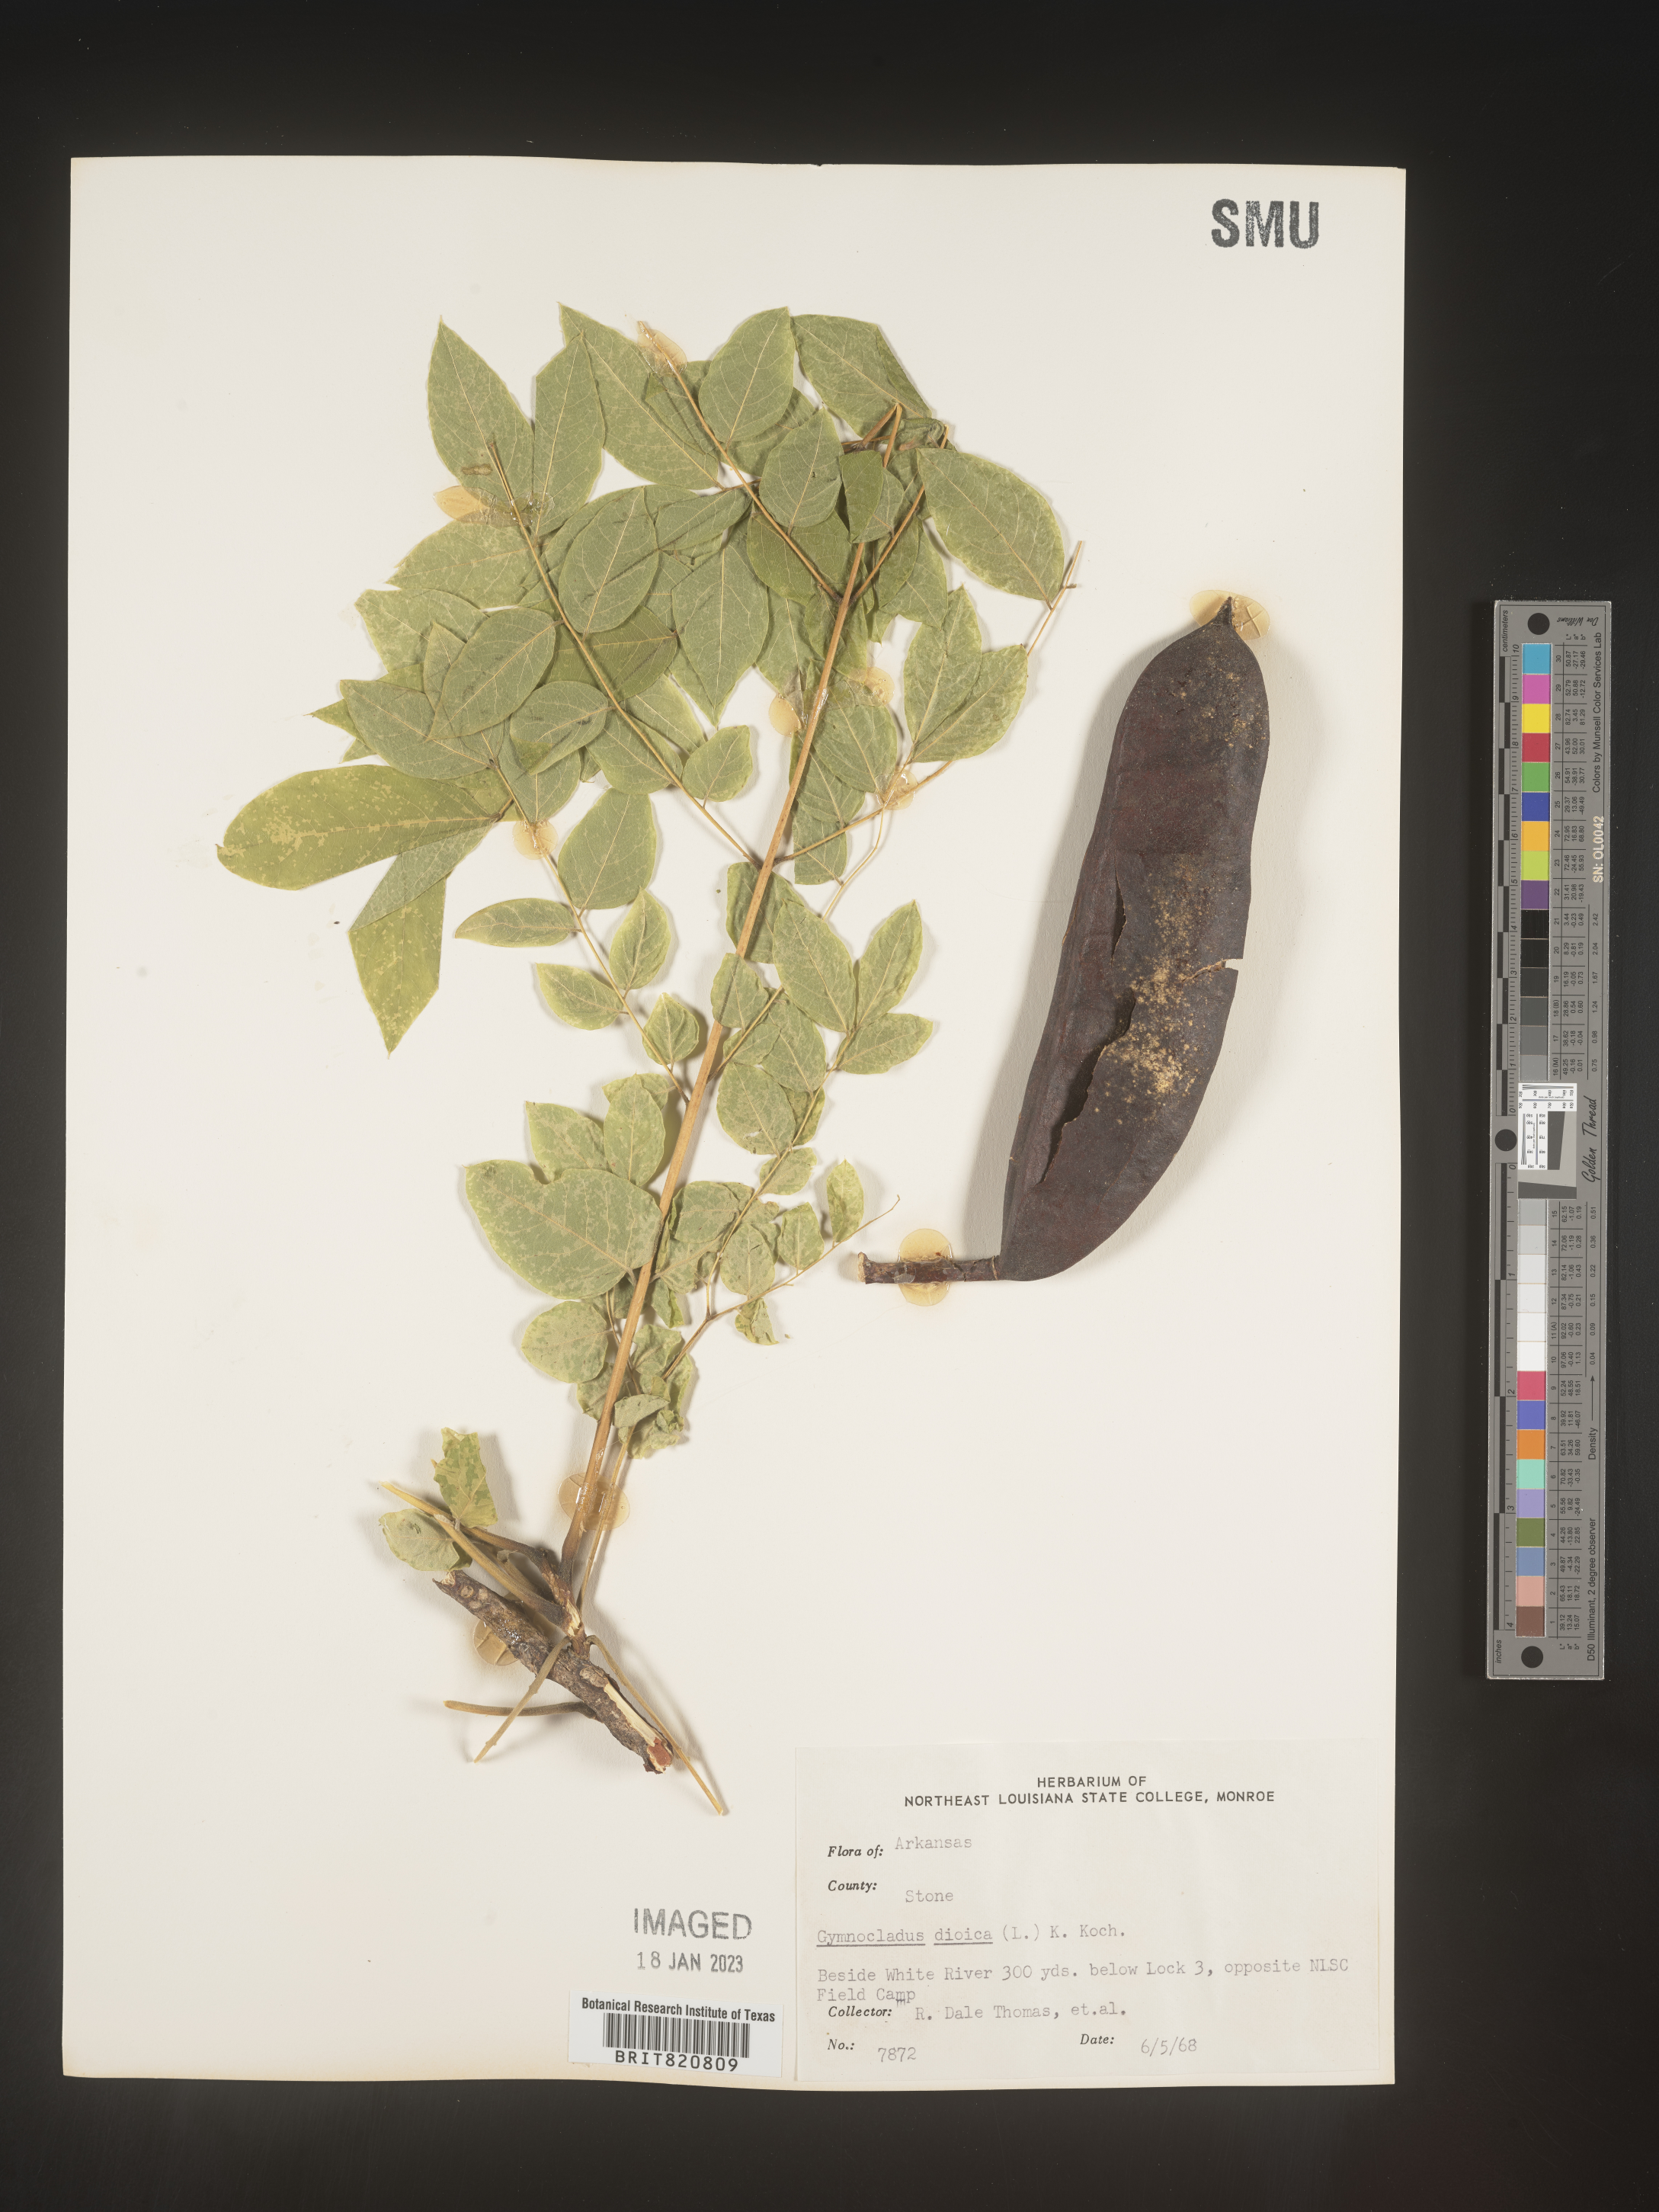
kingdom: Plantae
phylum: Tracheophyta
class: Magnoliopsida
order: Fabales
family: Fabaceae
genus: Gymnocladus
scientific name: Gymnocladus
